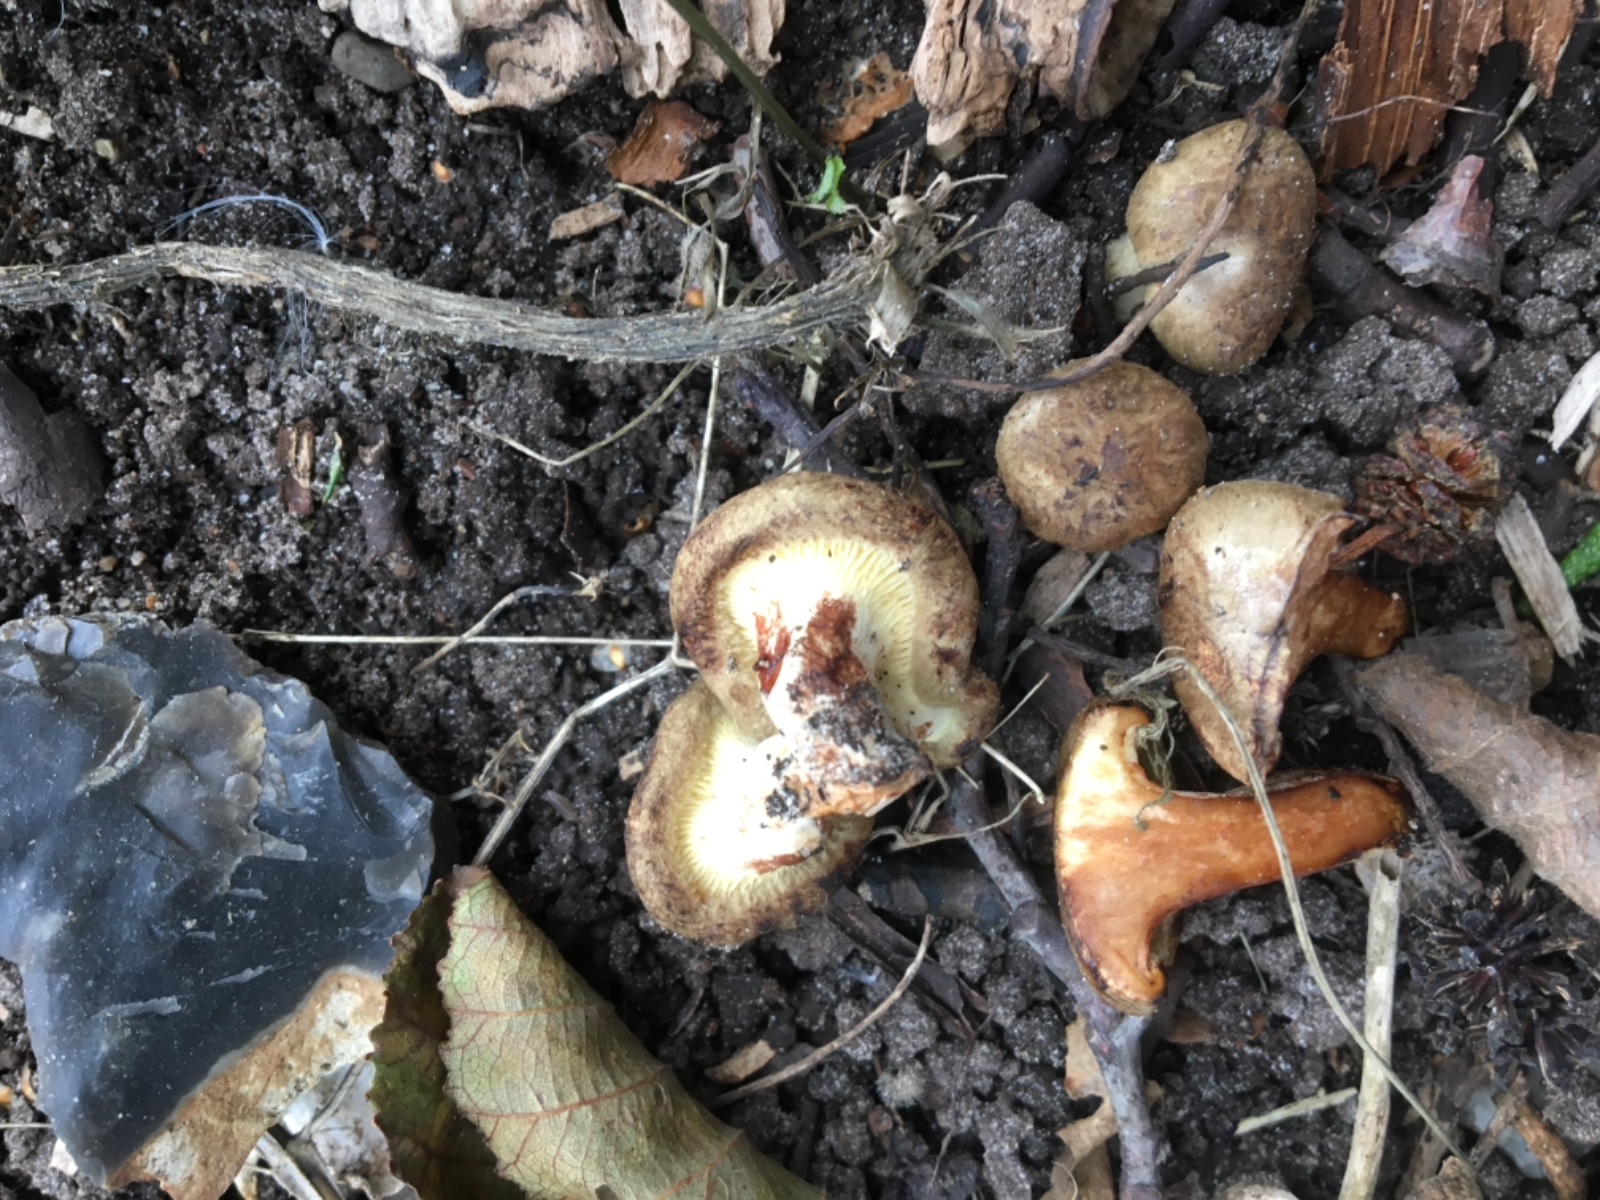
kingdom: Fungi
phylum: Basidiomycota
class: Agaricomycetes
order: Boletales
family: Paxillaceae
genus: Paxillus
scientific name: Paxillus
